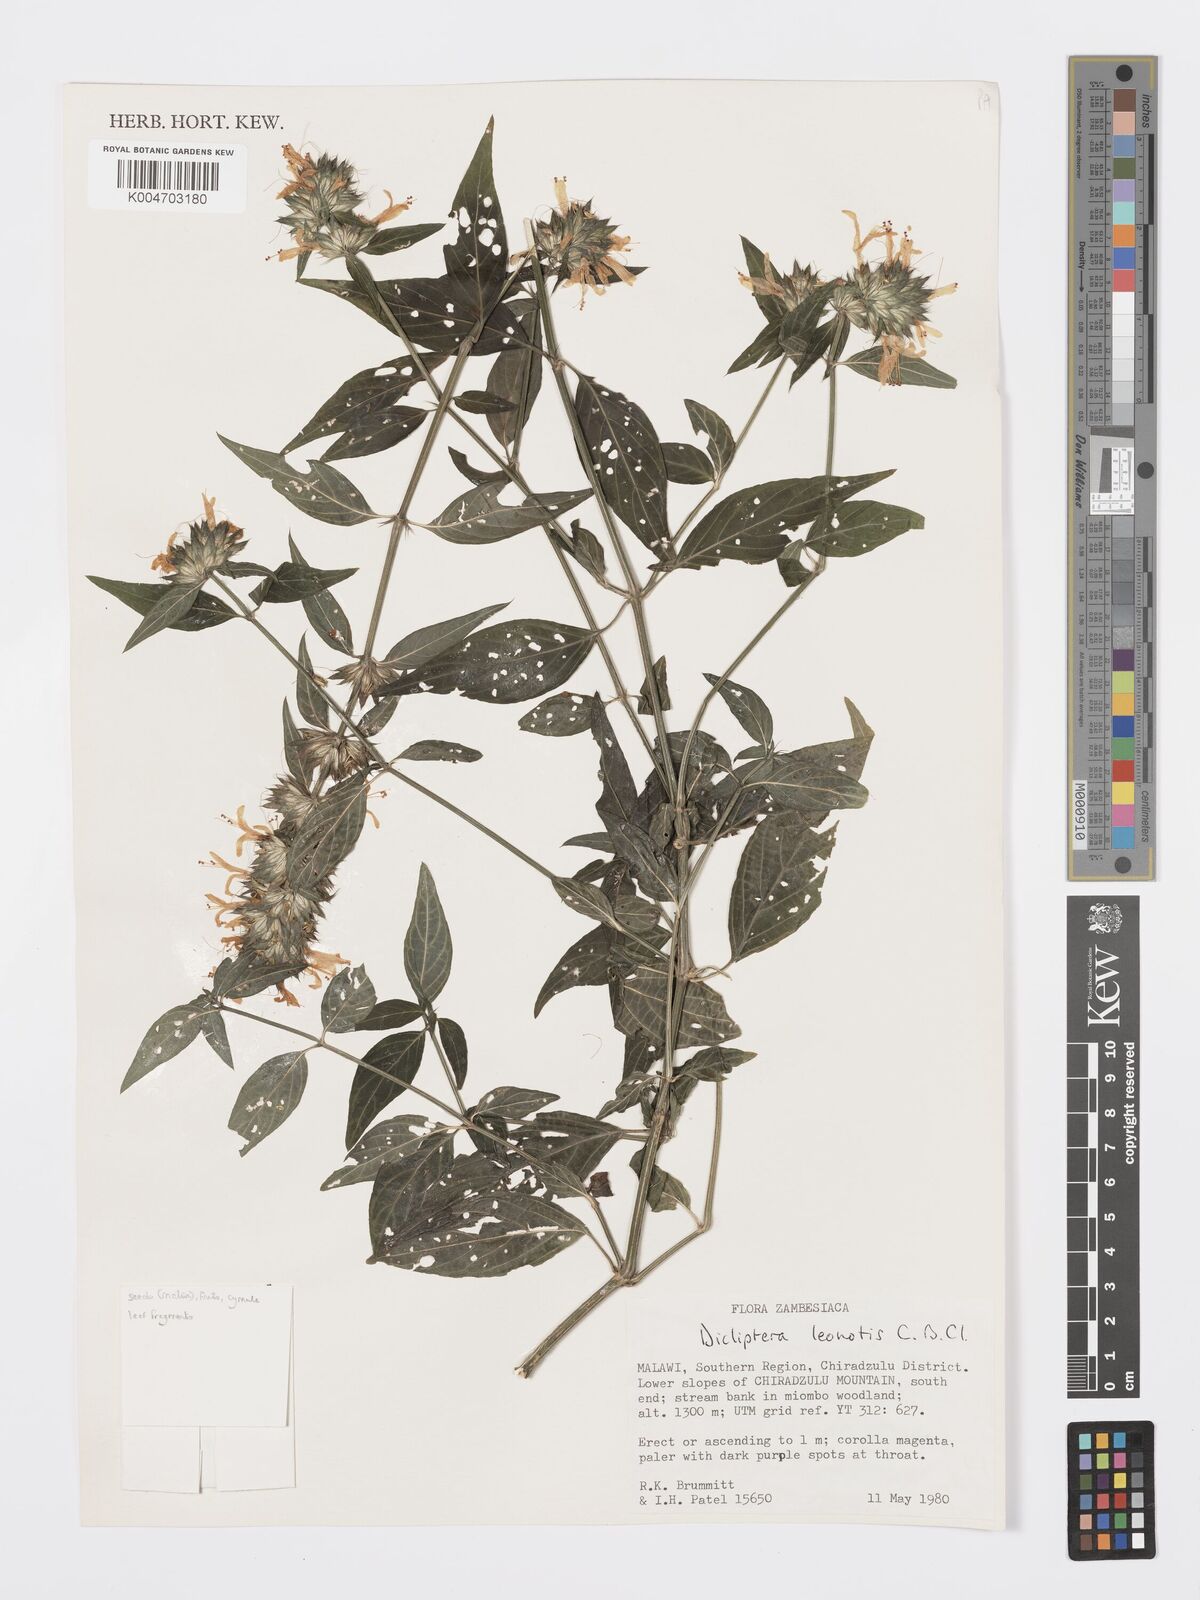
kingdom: Plantae
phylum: Tracheophyta
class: Magnoliopsida
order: Lamiales
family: Acanthaceae
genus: Dicliptera
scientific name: Dicliptera clinopodia
